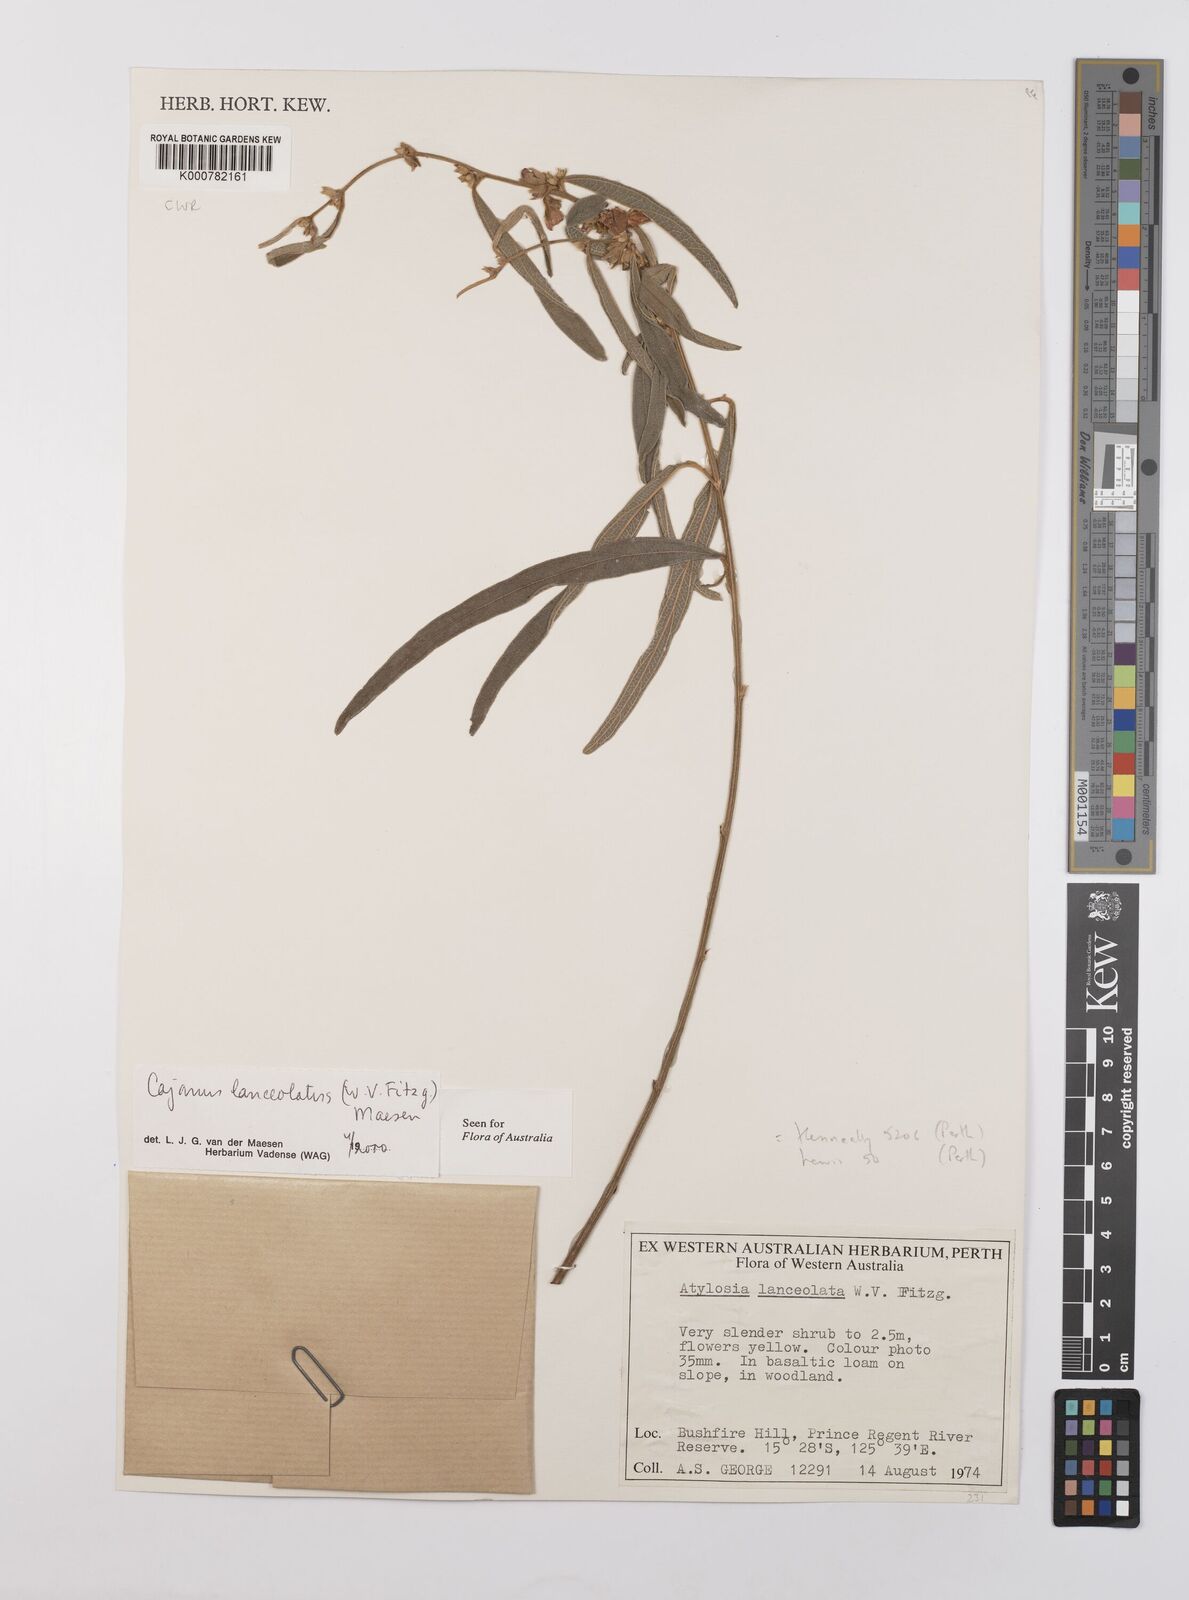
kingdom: Plantae
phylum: Tracheophyta
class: Magnoliopsida
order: Fabales
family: Fabaceae
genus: Cajanus
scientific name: Cajanus lanceolatus
